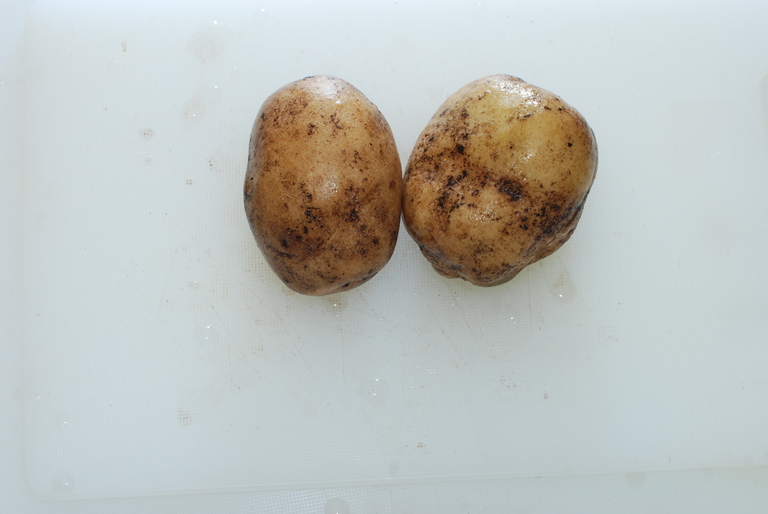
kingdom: Plantae
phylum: Tracheophyta
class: Magnoliopsida
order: Solanales
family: Solanaceae
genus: Solanum
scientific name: Solanum tuberosum
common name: Potato
